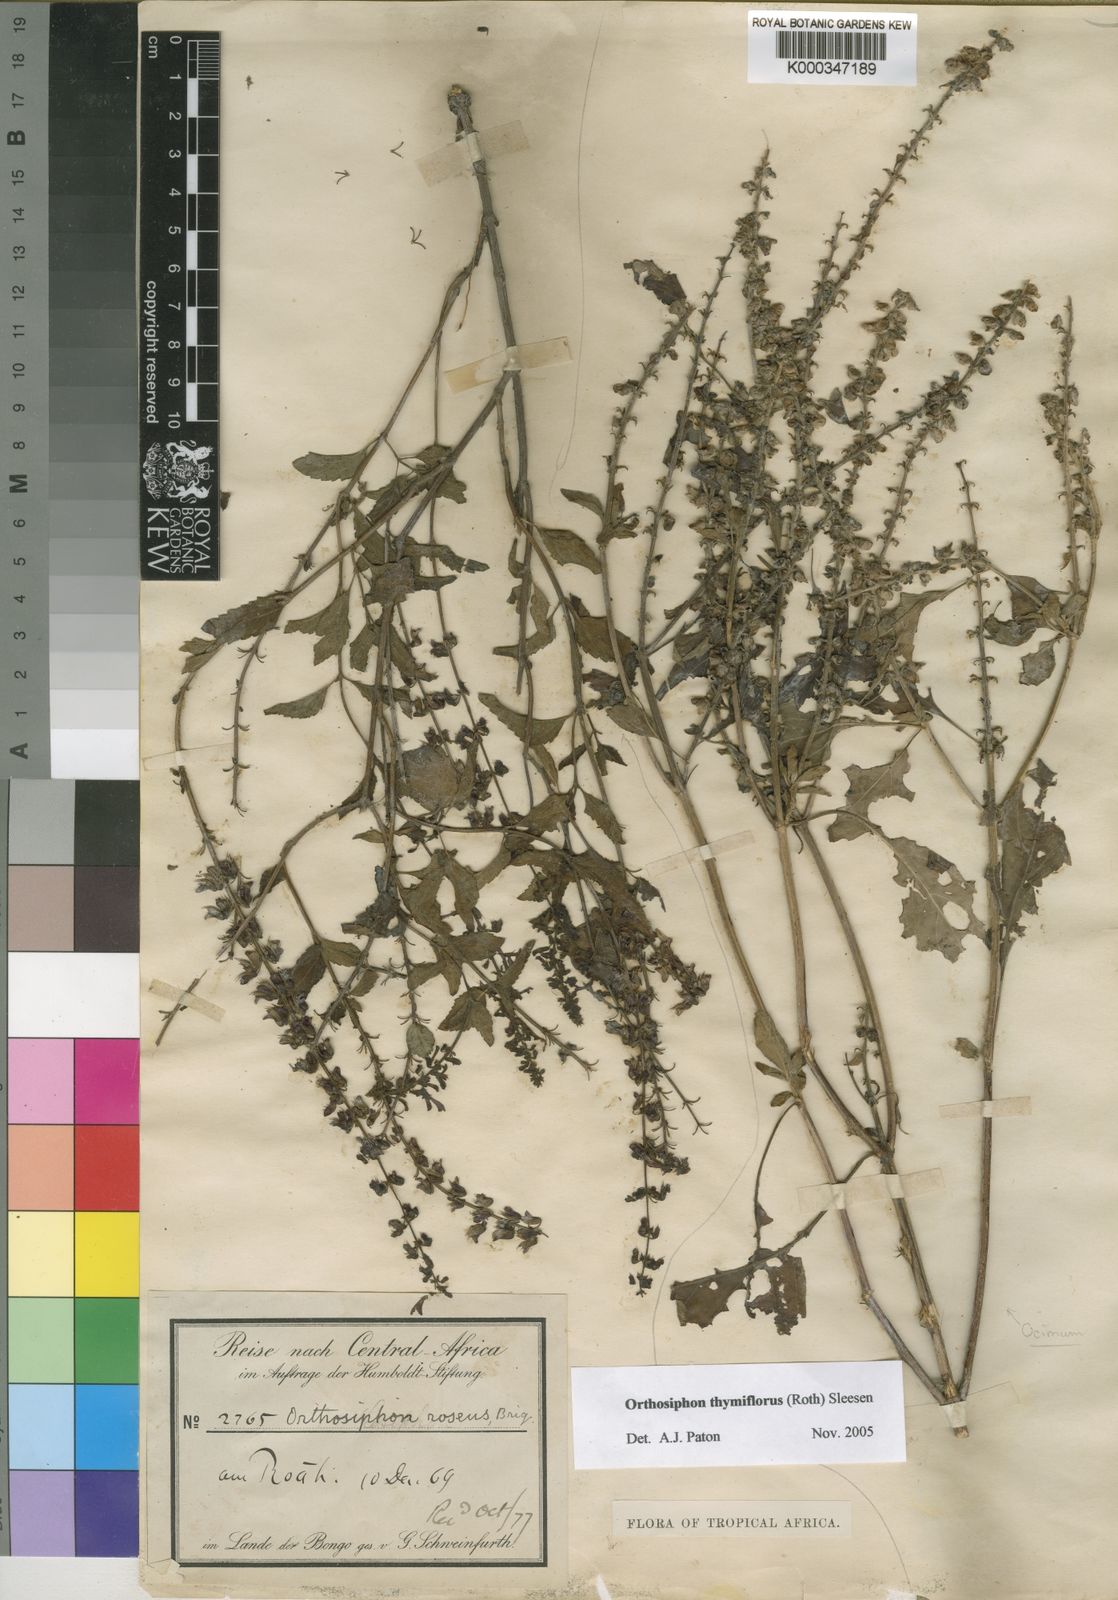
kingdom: Plantae
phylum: Tracheophyta
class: Magnoliopsida
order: Lamiales
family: Lamiaceae
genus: Orthosiphon
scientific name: Orthosiphon thymiflorus
